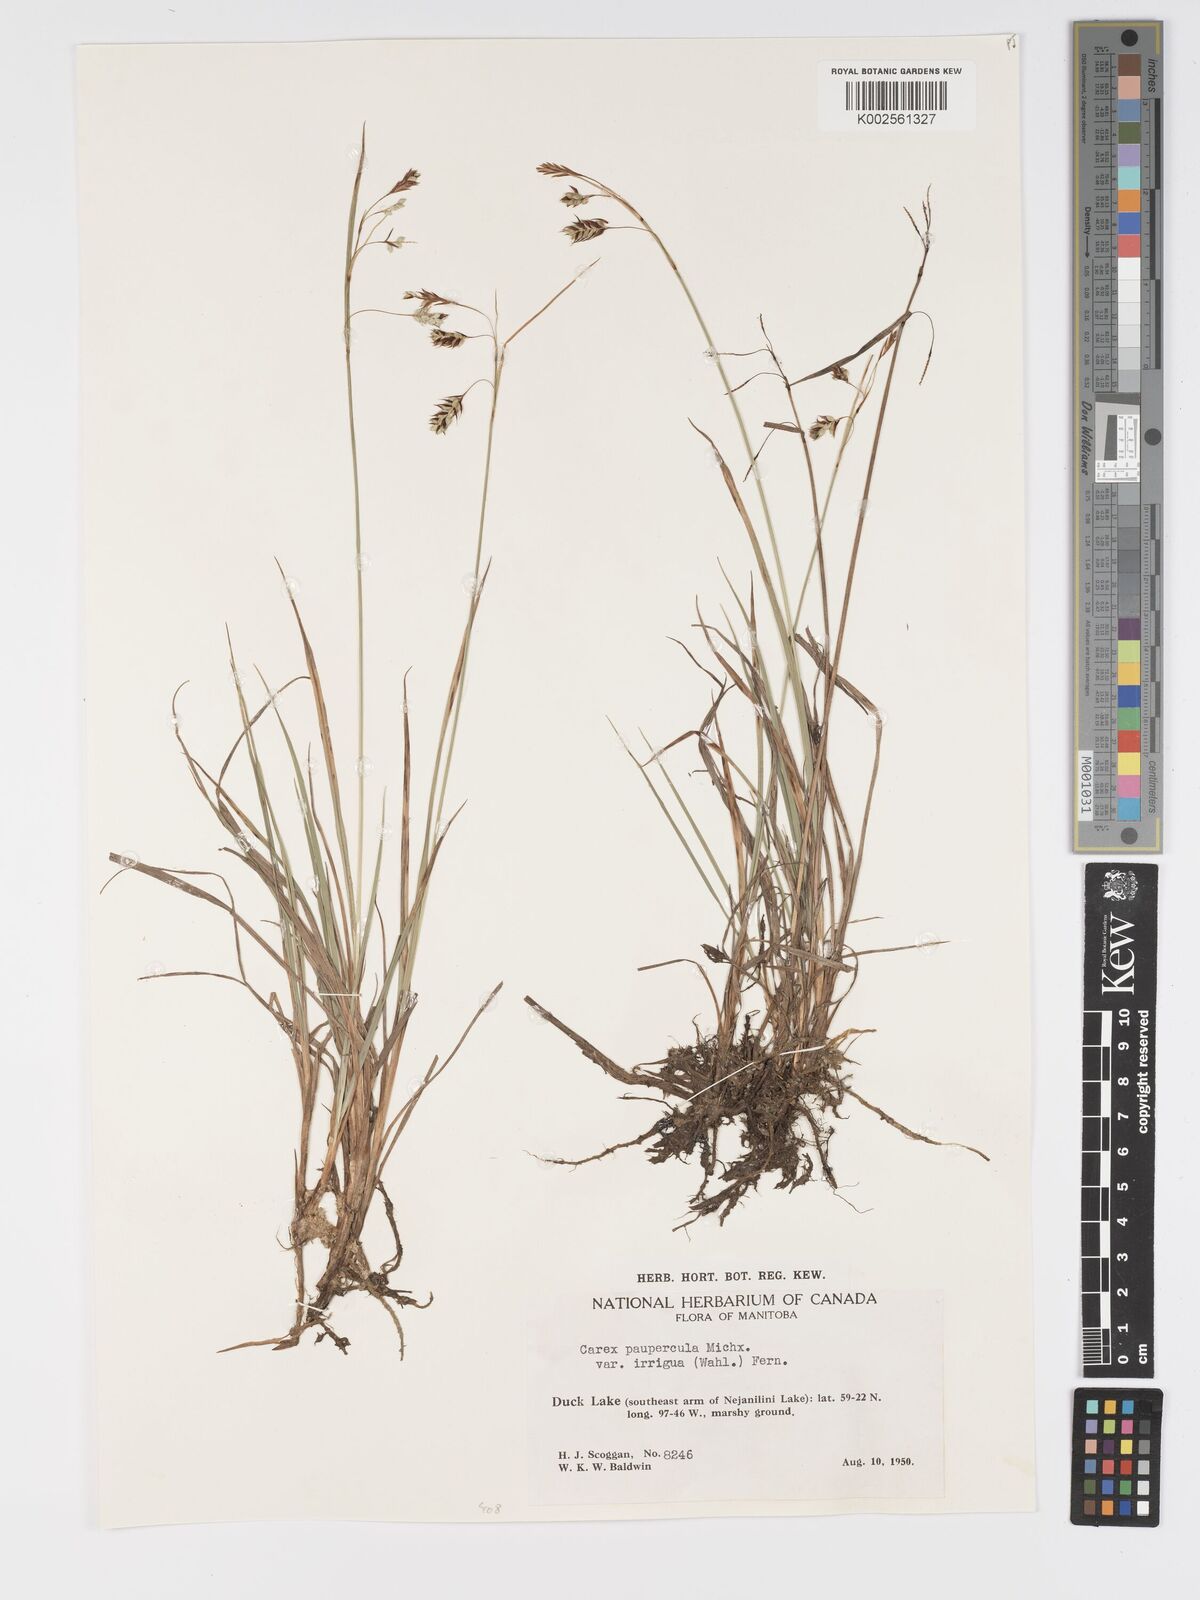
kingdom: Plantae
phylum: Tracheophyta
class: Liliopsida
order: Poales
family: Cyperaceae
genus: Carex
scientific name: Carex magellanica
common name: Bog sedge
